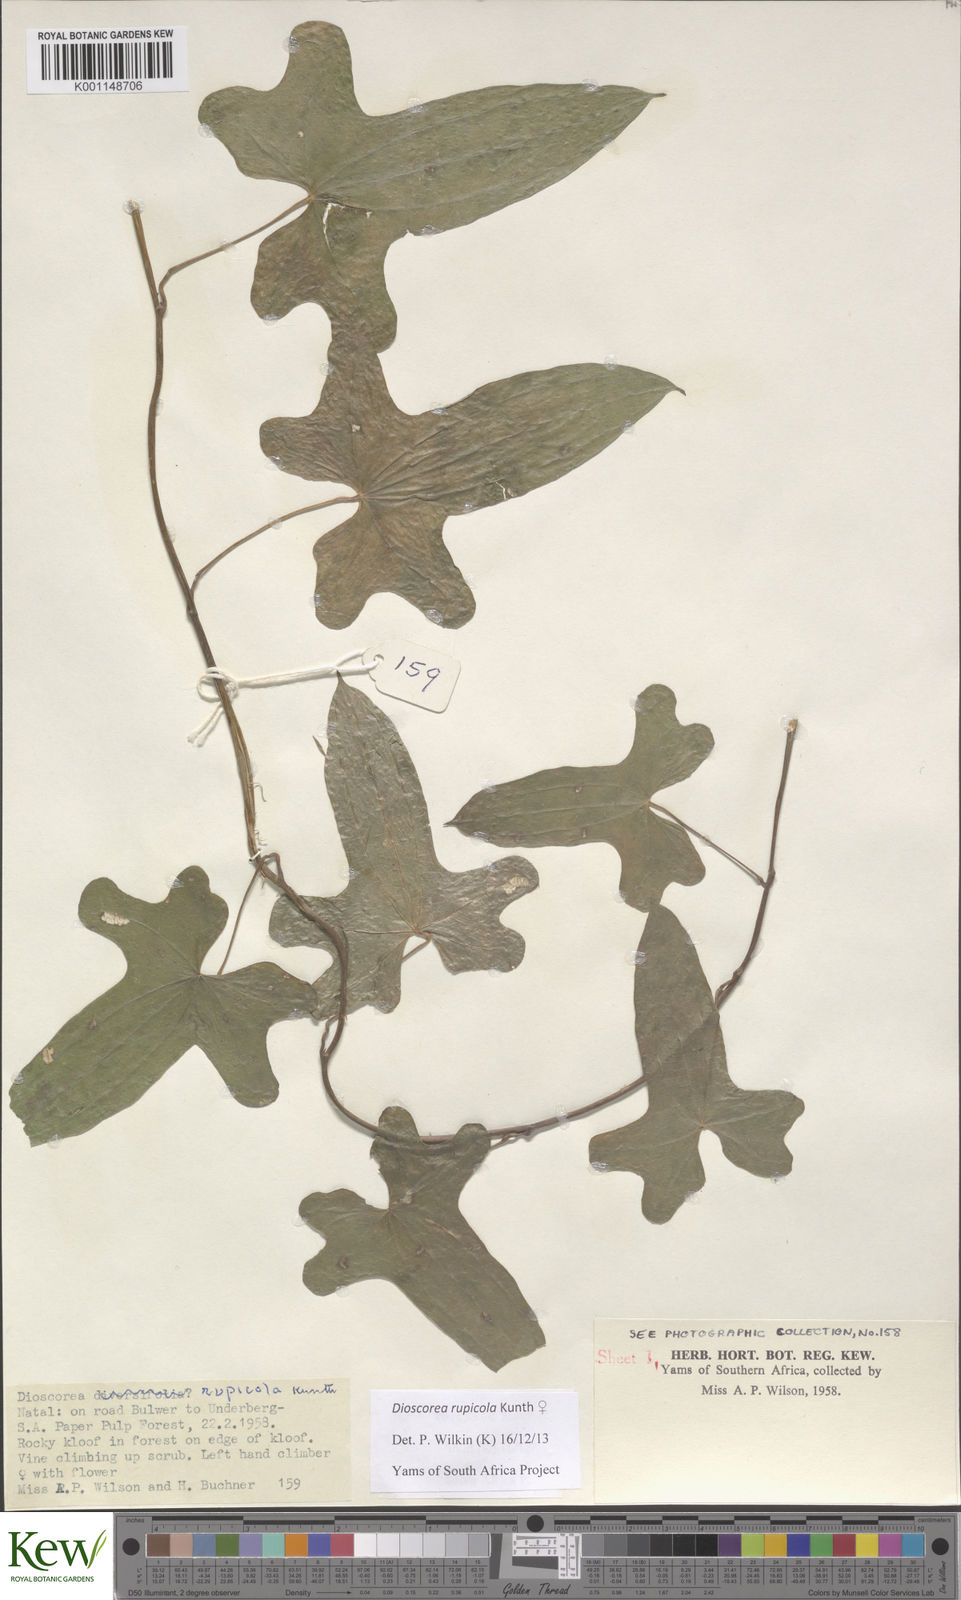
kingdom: Plantae
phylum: Tracheophyta
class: Liliopsida
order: Dioscoreales
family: Dioscoreaceae
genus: Dioscorea
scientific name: Dioscorea rupicola
